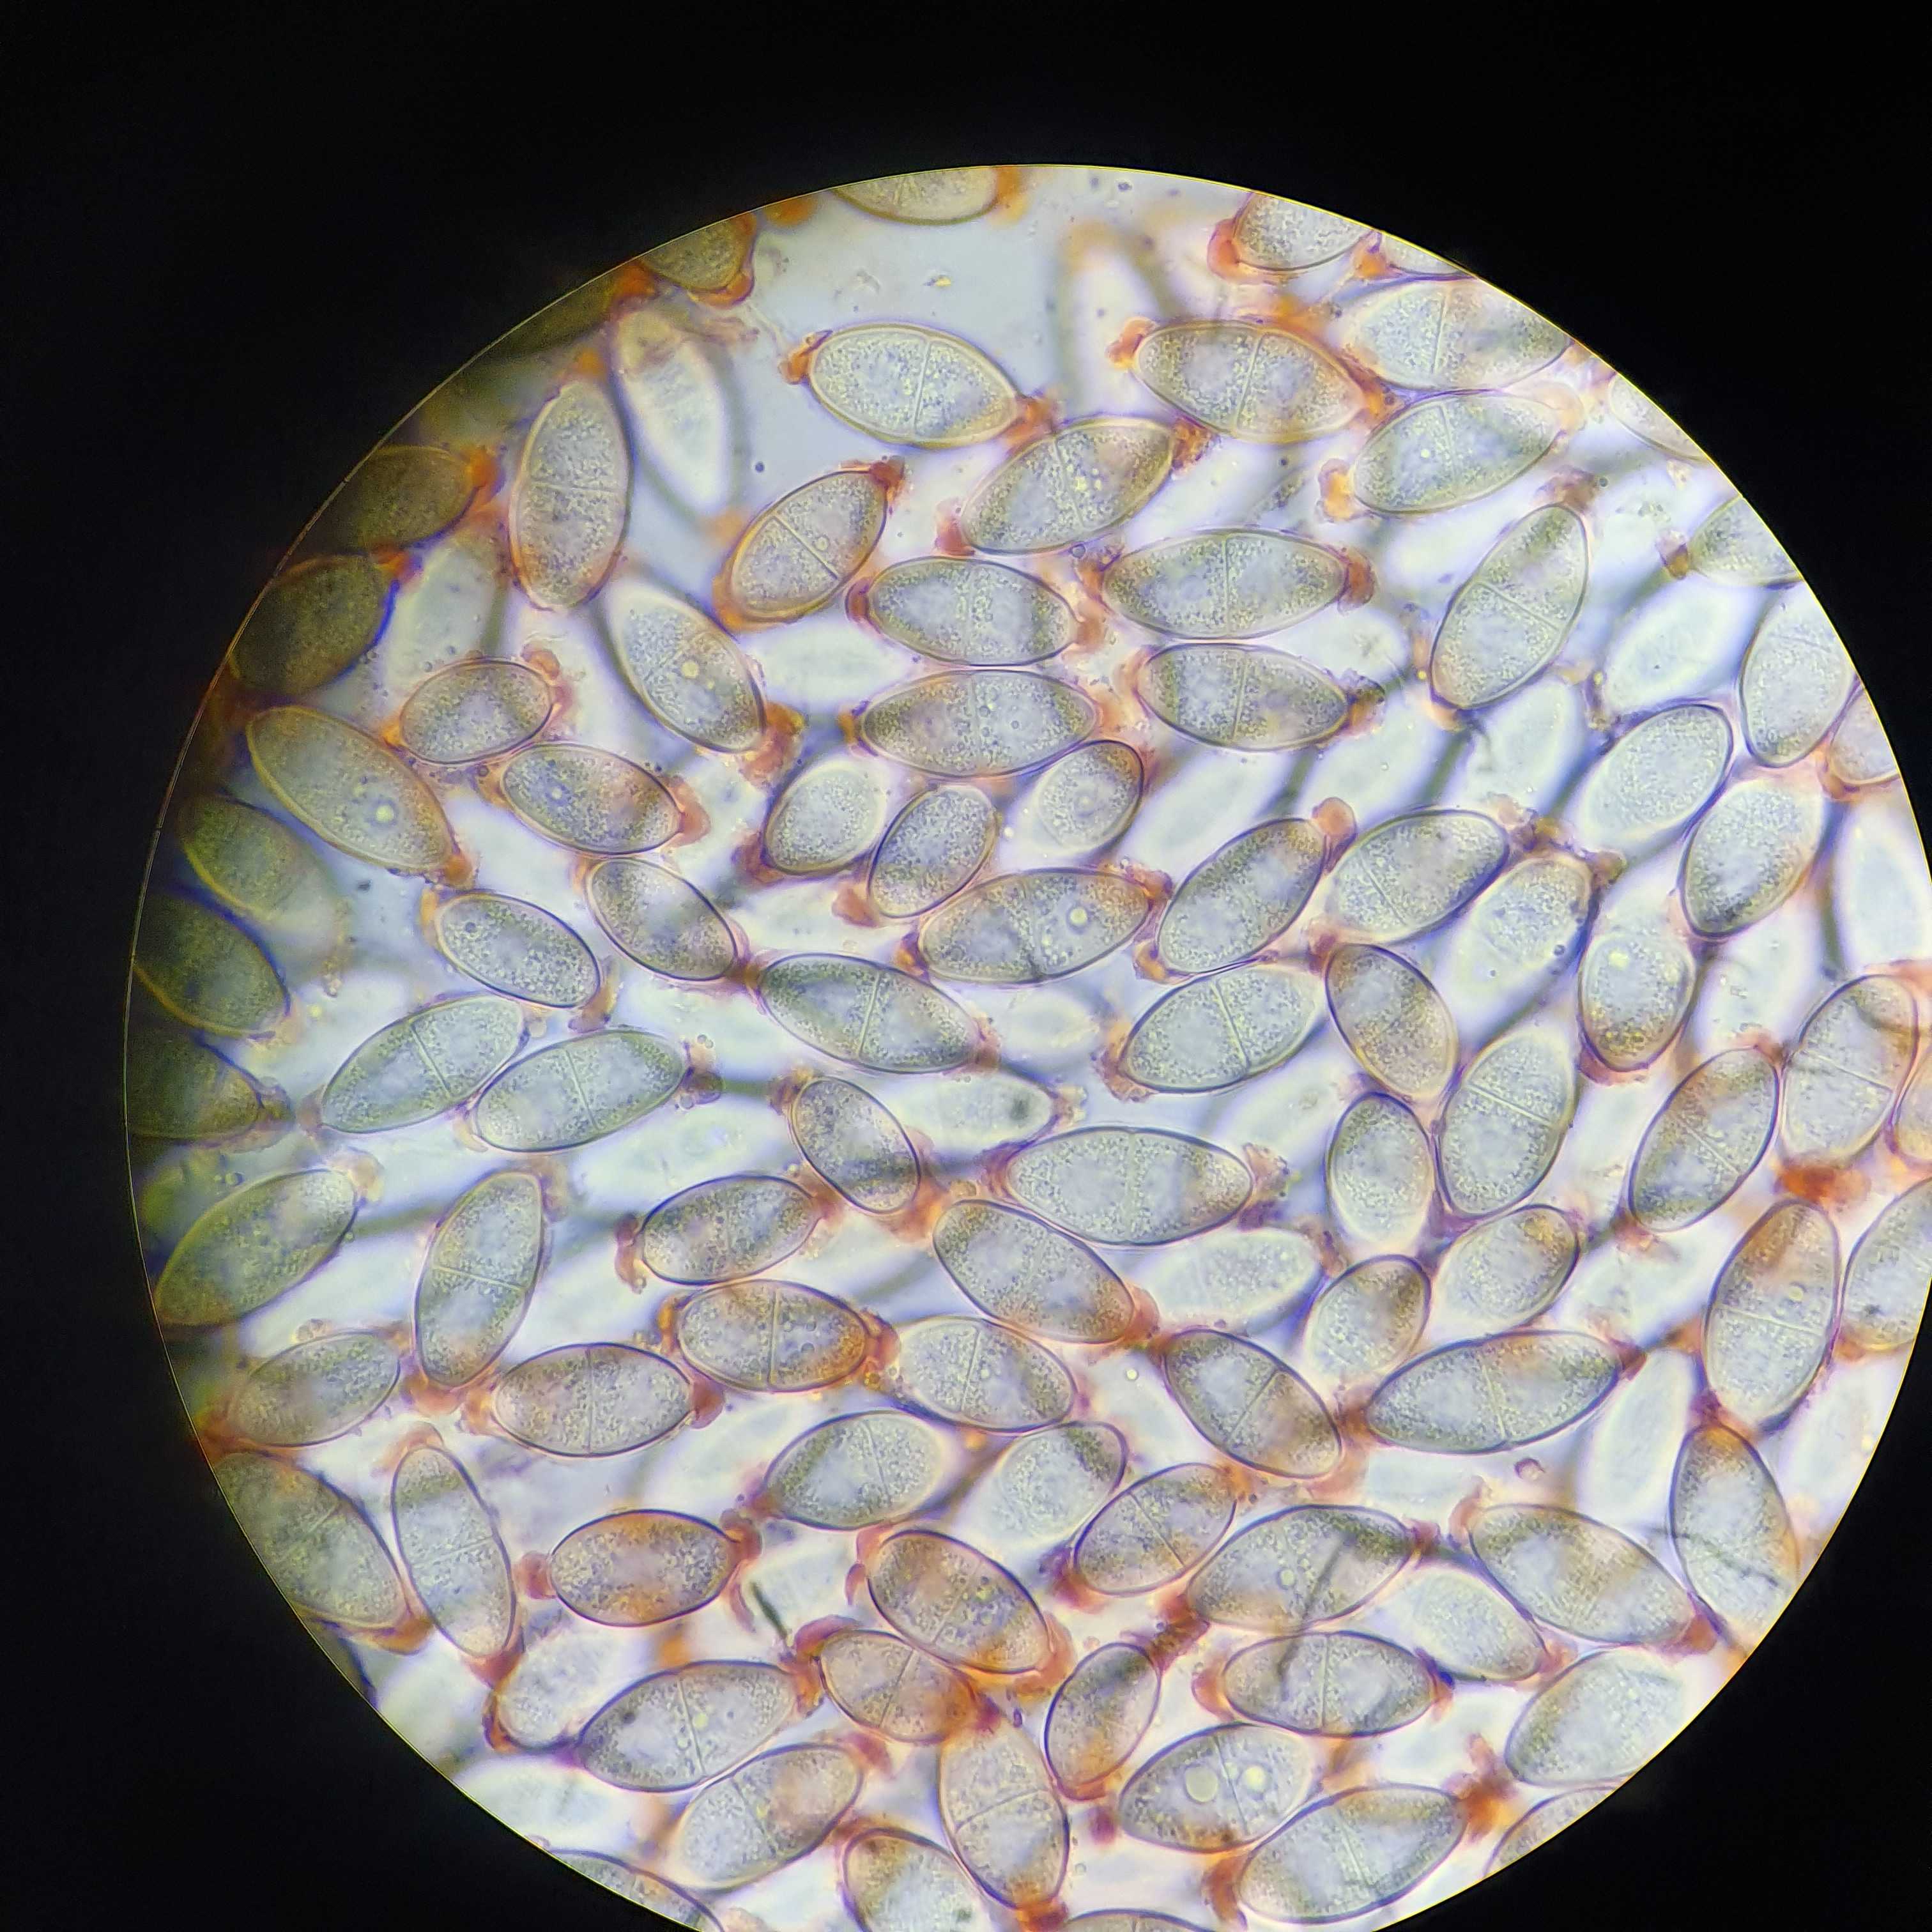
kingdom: Fungi
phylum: Ascomycota
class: Dothideomycetes
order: Pleosporales
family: Didymosphaeriaceae
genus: Montagnula
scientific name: Montagnula perforans
